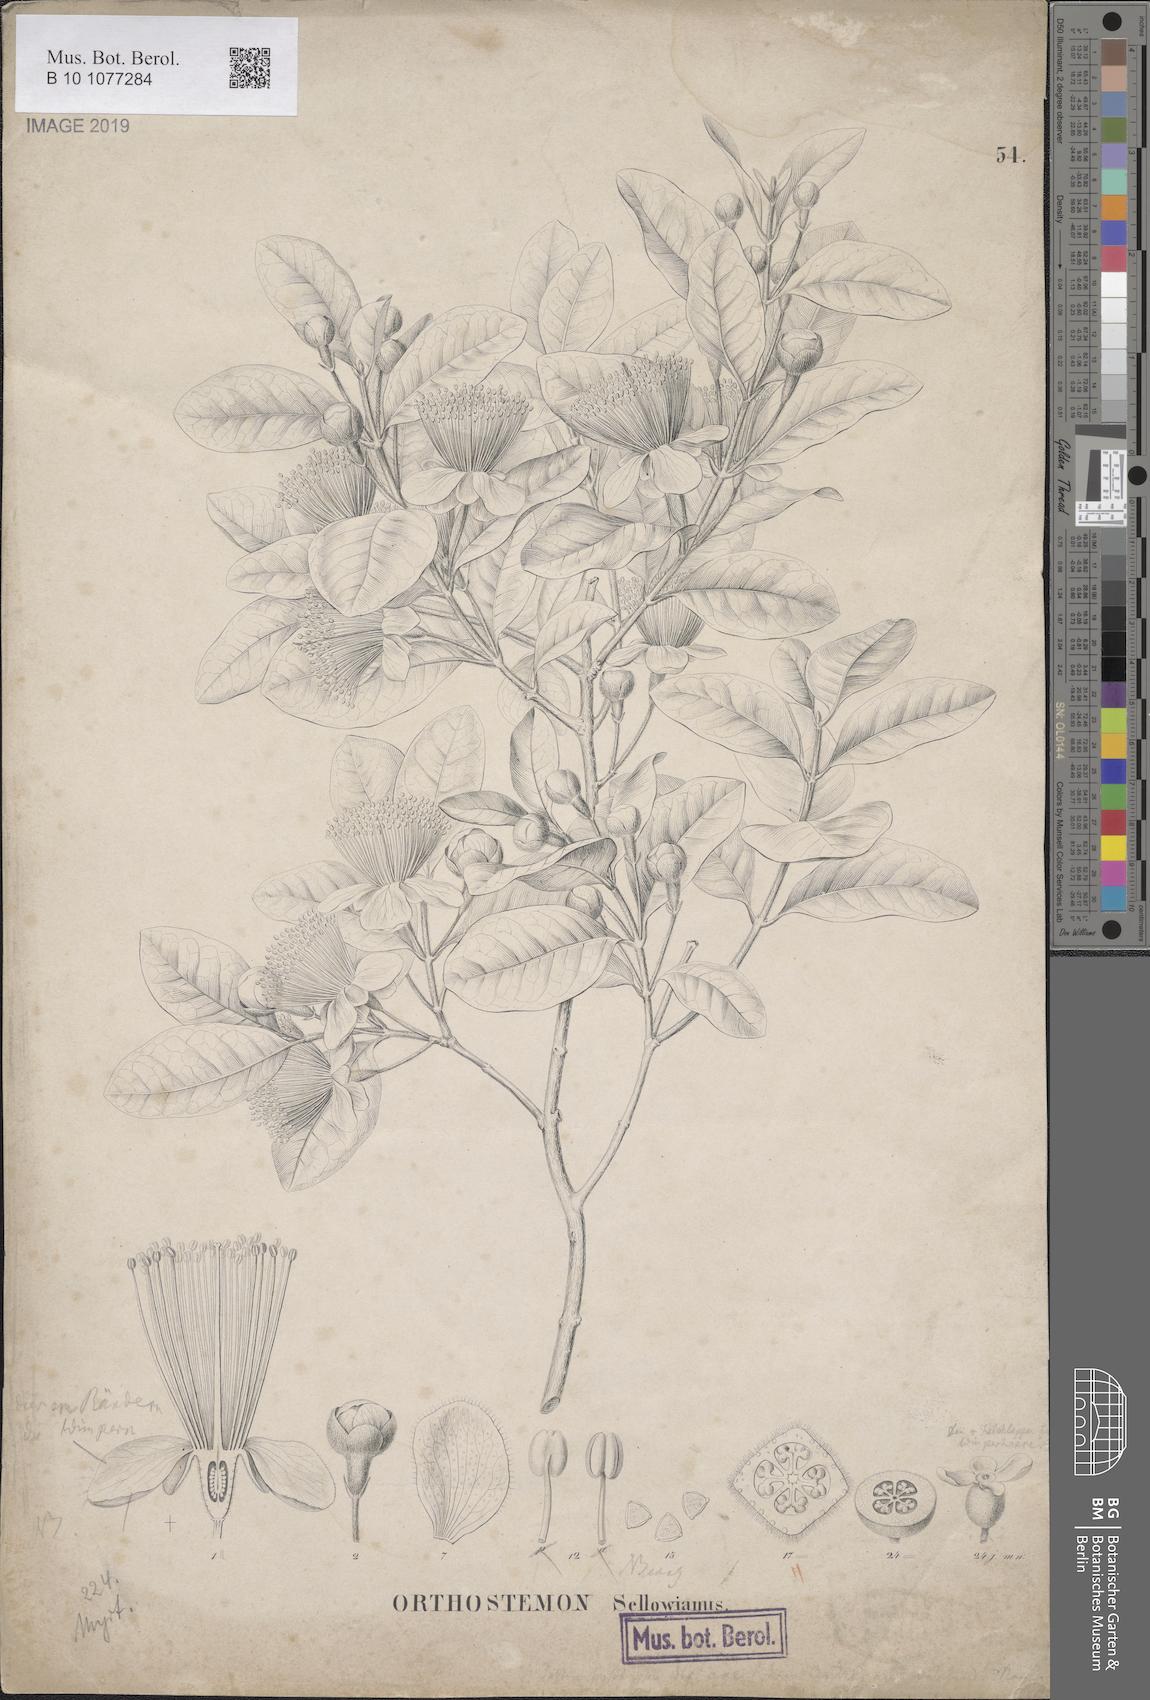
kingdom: Plantae
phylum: Tracheophyta
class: Magnoliopsida
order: Myrtales
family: Myrtaceae
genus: Feijoa
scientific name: Feijoa sellowiana
